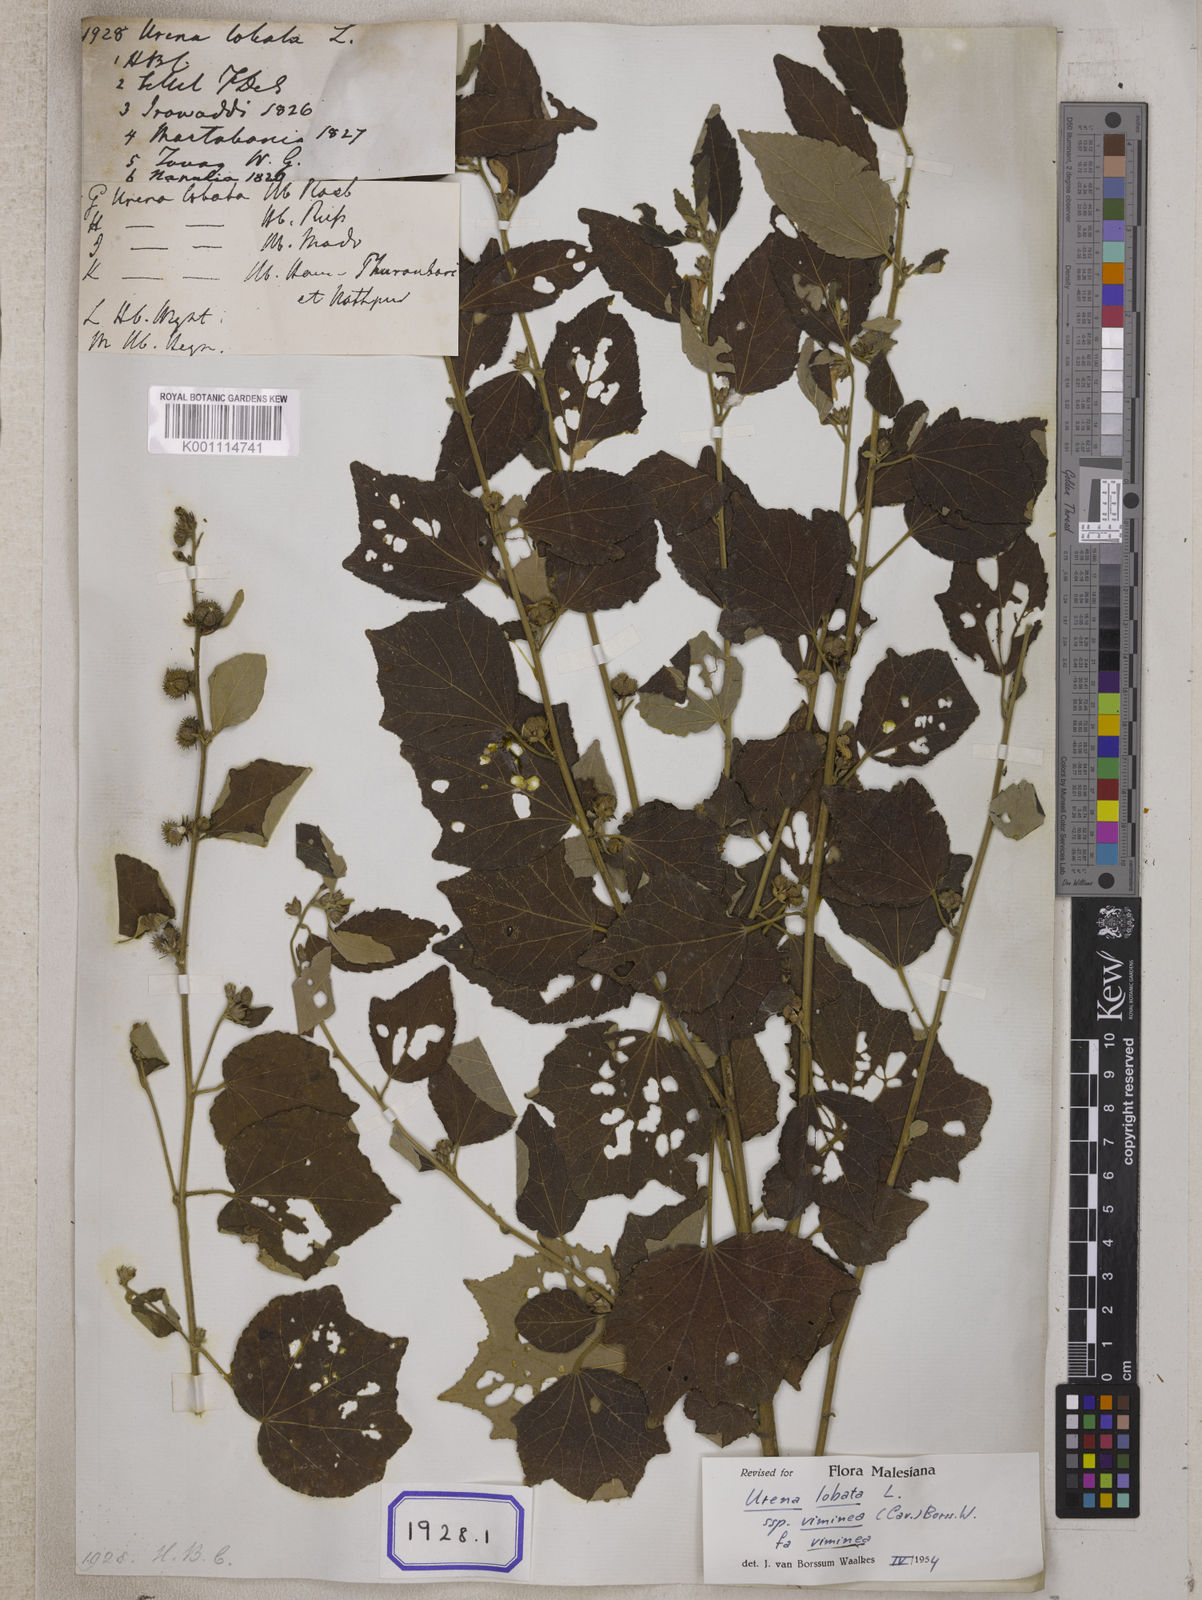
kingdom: Plantae
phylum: Tracheophyta
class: Magnoliopsida
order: Malvales
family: Malvaceae
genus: Urena
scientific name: Urena lobata
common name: Caesarweed
